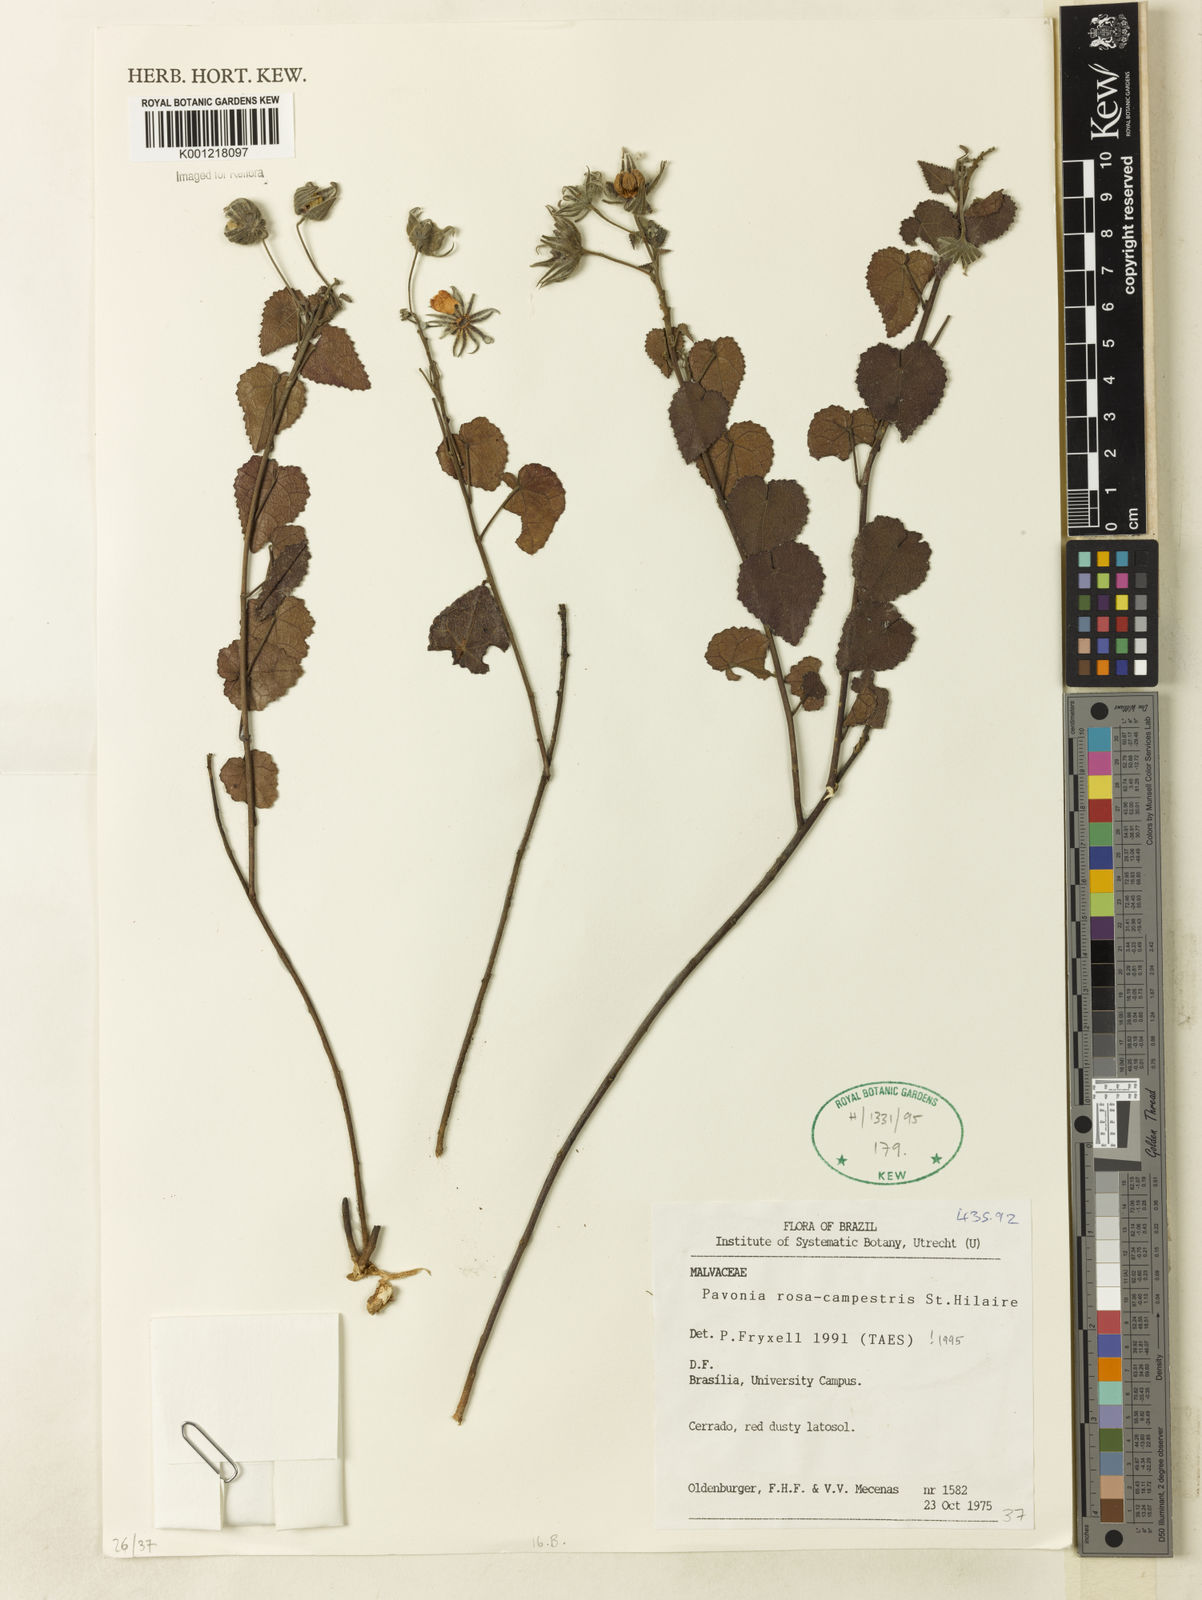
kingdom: Plantae
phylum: Tracheophyta
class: Magnoliopsida
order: Malvales
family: Malvaceae
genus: Pavonia
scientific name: Pavonia rosa-campestris
